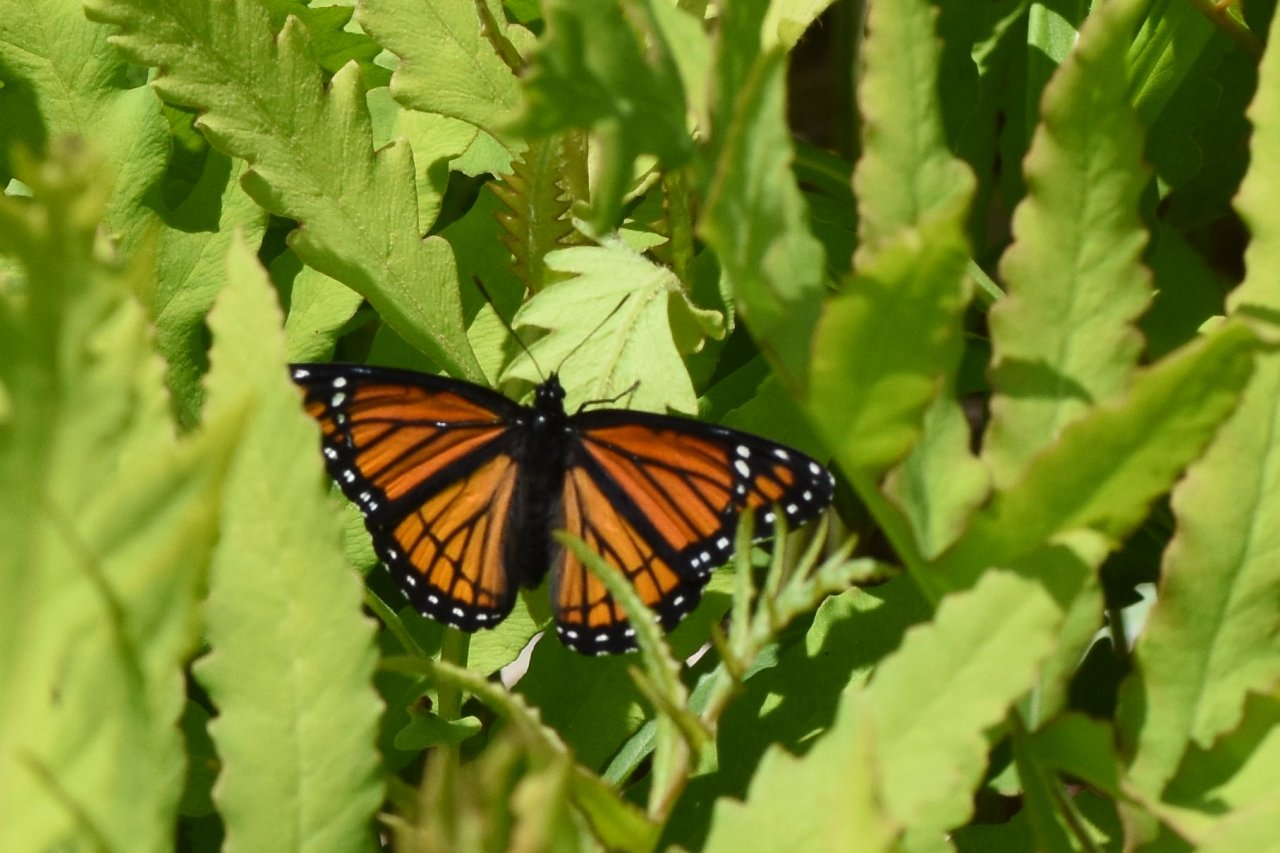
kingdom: Animalia
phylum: Arthropoda
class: Insecta
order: Lepidoptera
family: Nymphalidae
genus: Limenitis
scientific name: Limenitis archippus
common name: Viceroy
